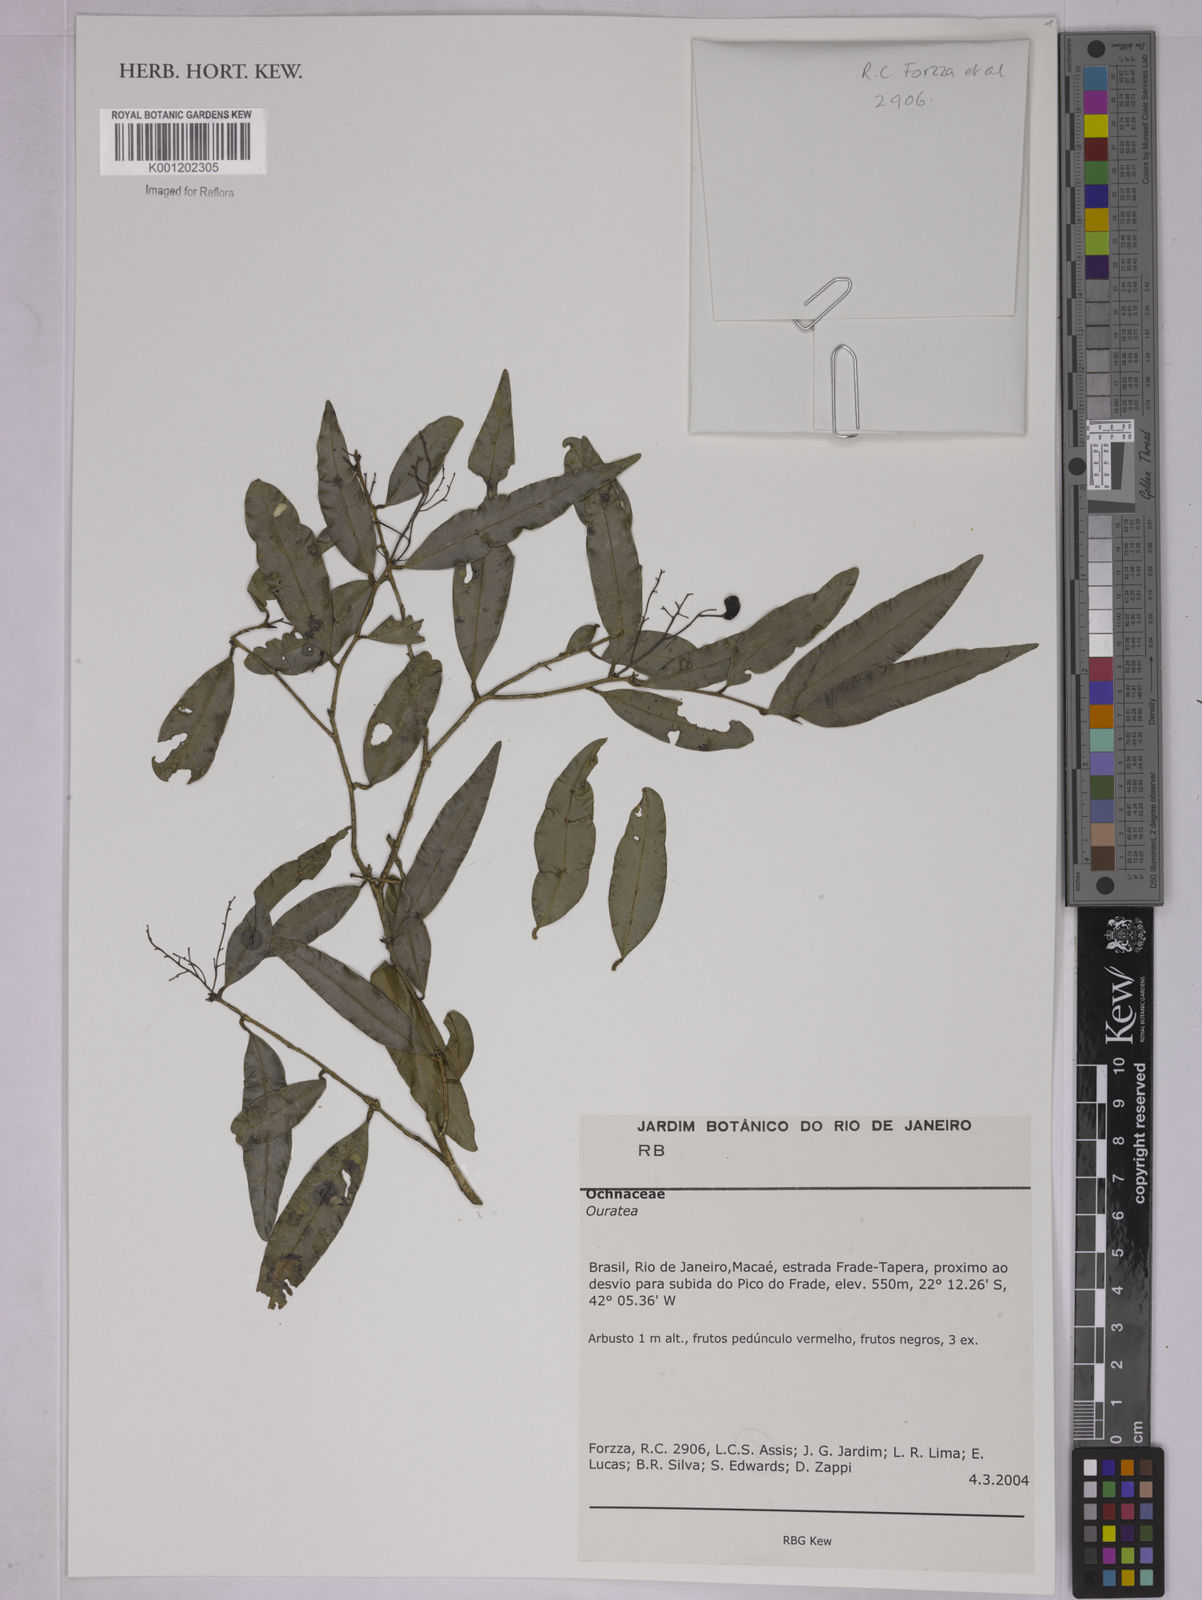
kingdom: Plantae
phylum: Tracheophyta
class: Magnoliopsida
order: Malpighiales
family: Ochnaceae
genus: Ouratea
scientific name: Ouratea
